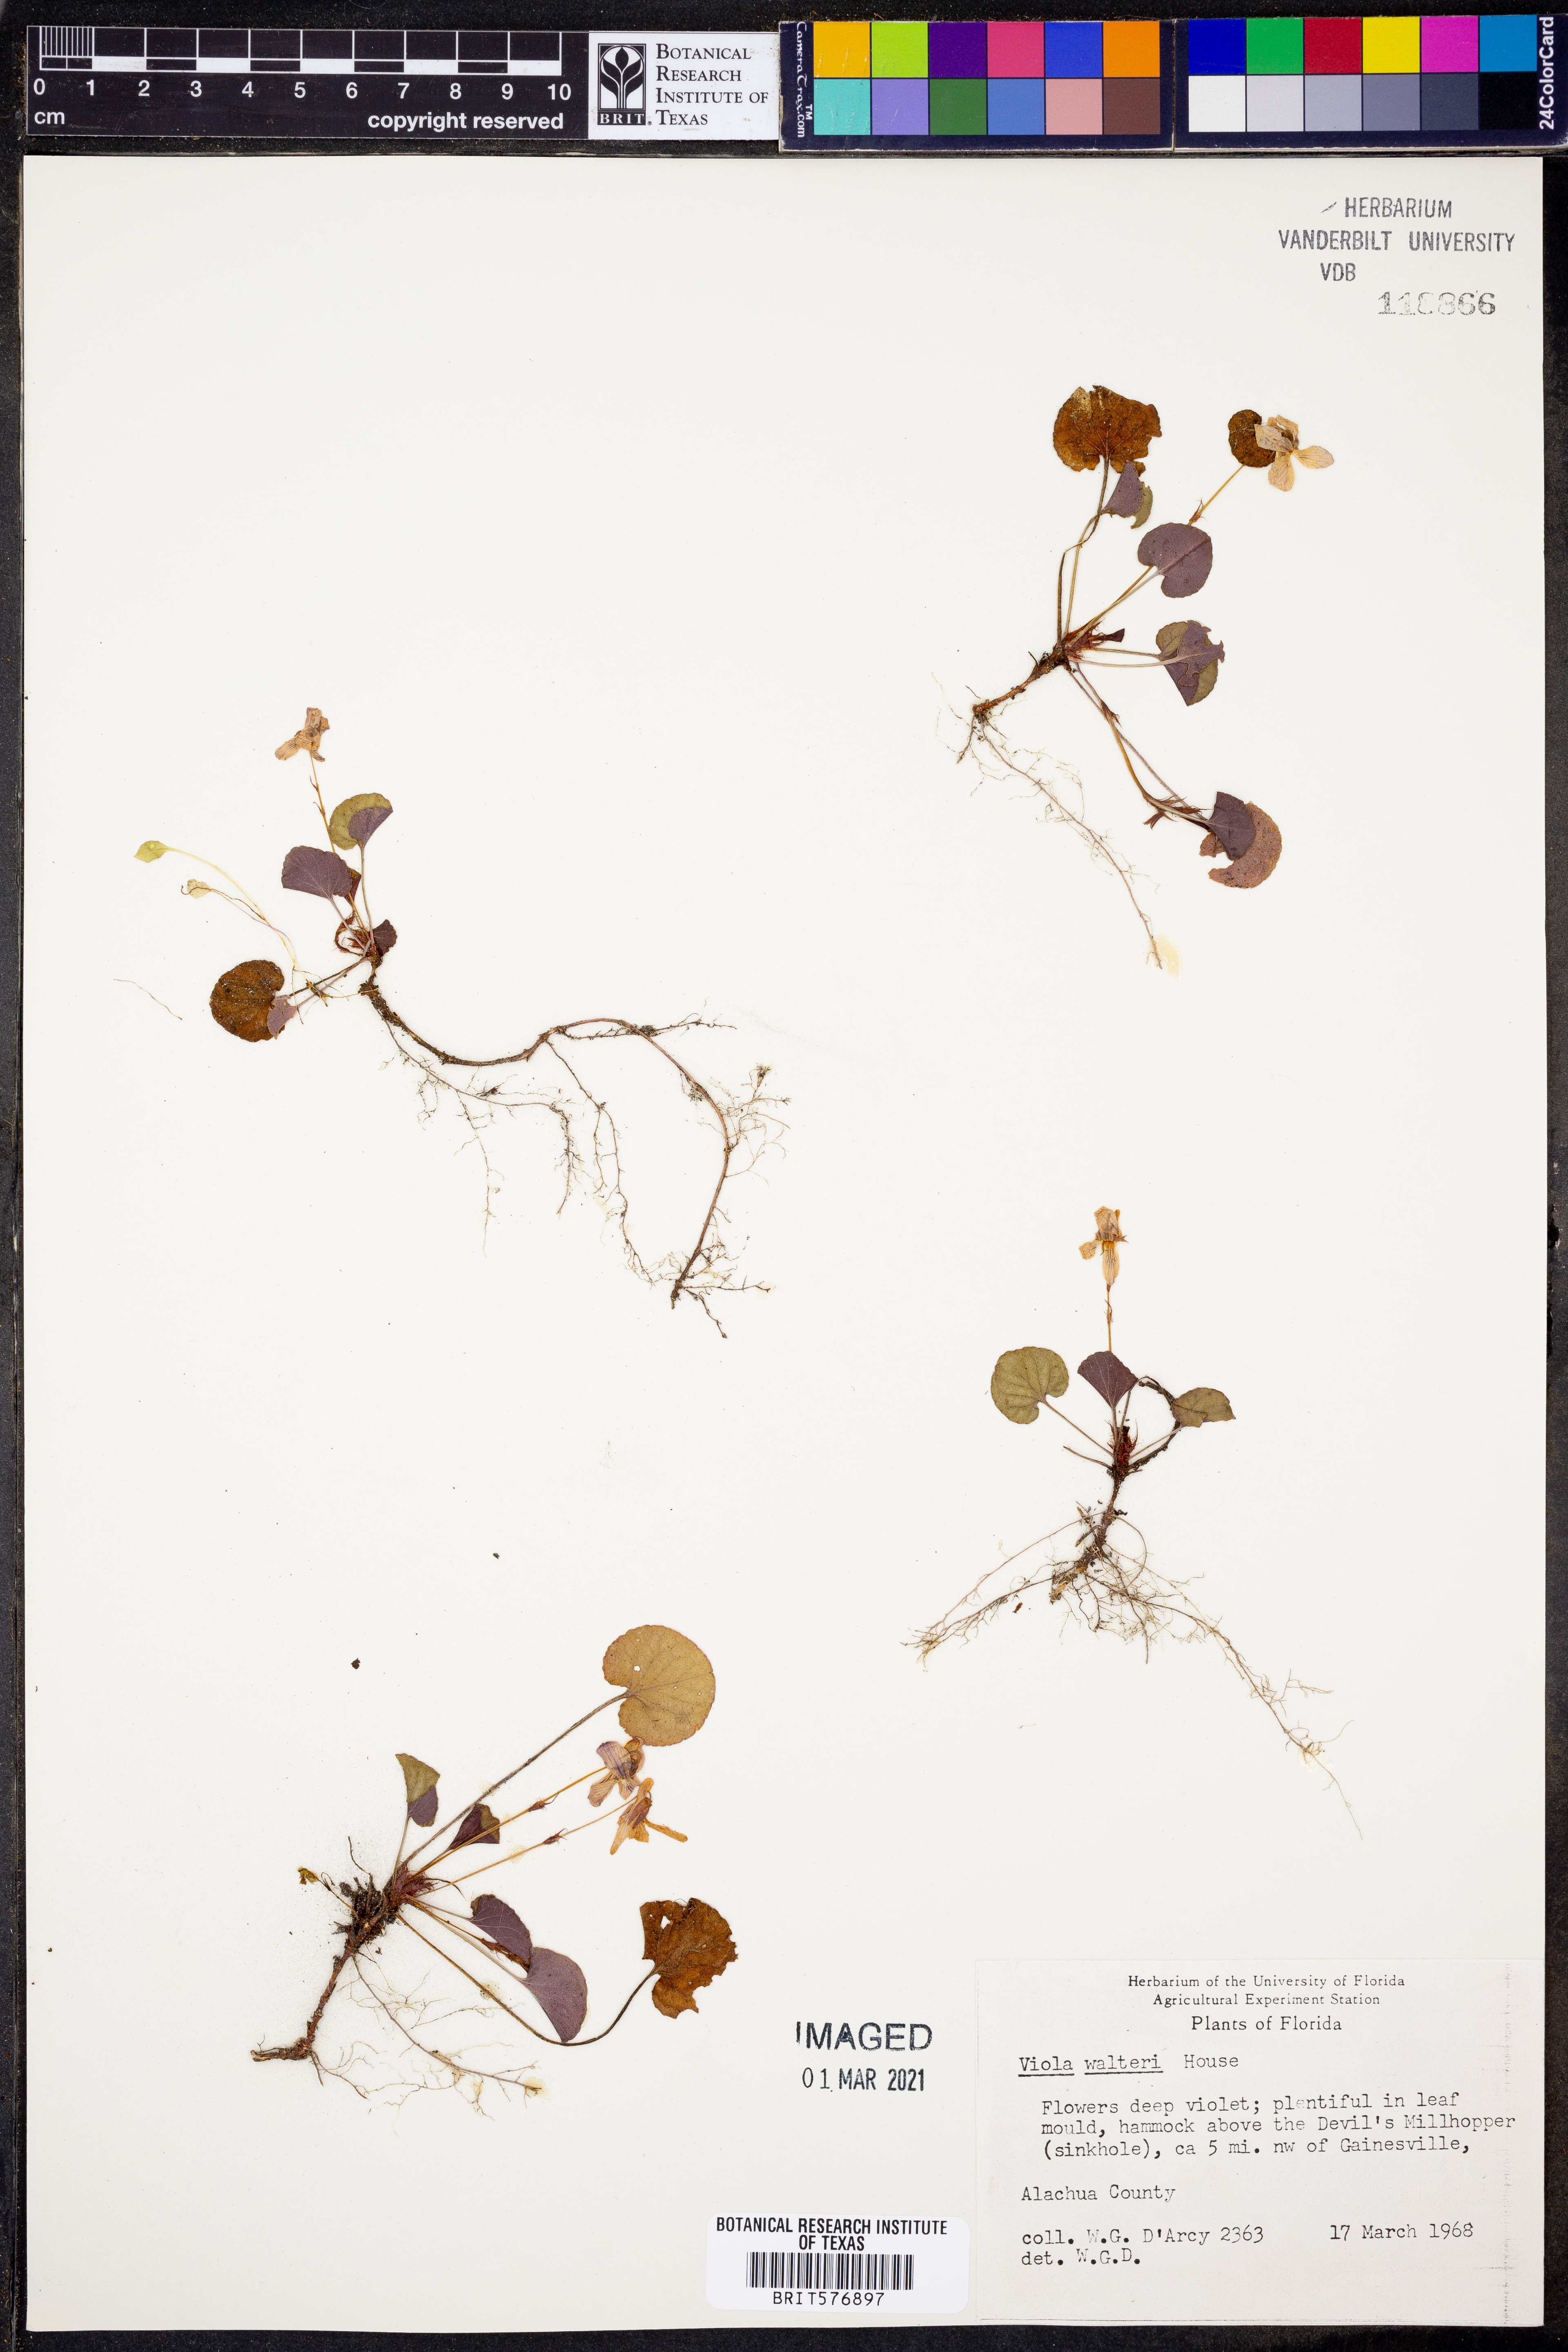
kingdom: Plantae
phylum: Tracheophyta
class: Magnoliopsida
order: Malpighiales
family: Violaceae
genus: Viola
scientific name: Viola walteri
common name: Prostrate southern violet
